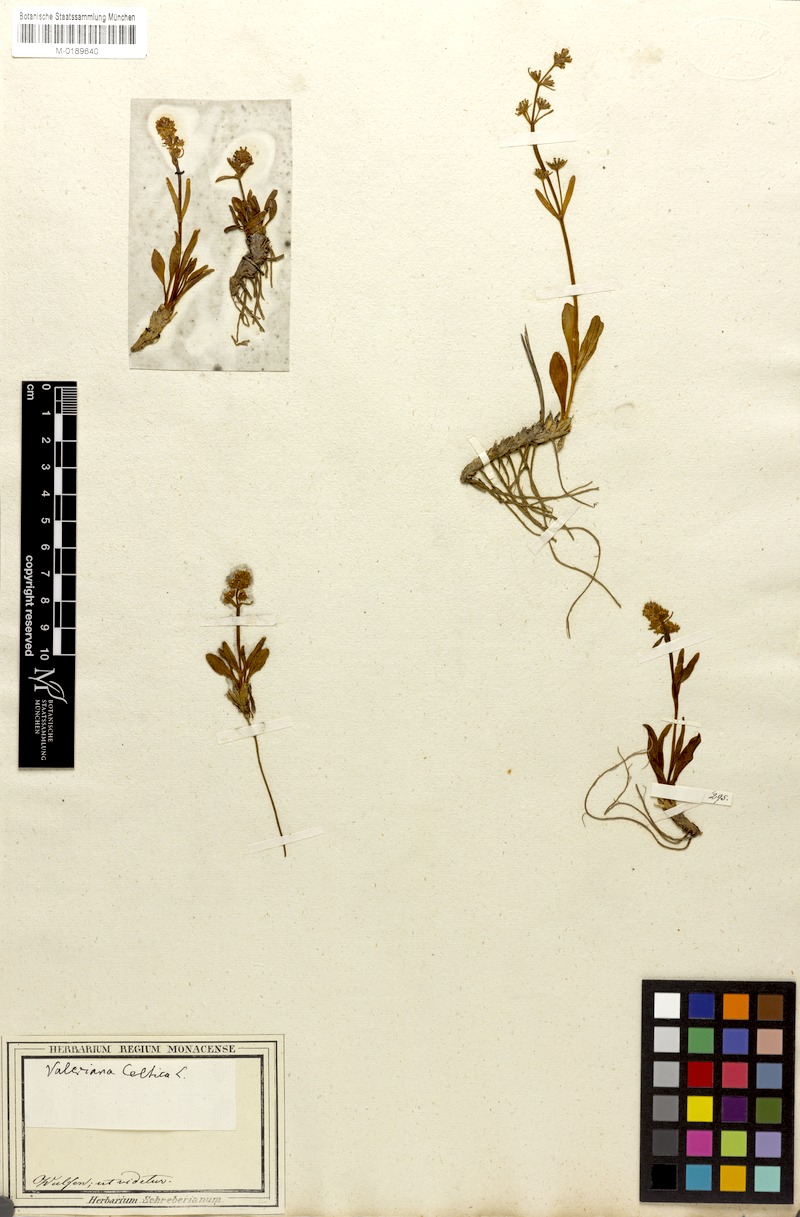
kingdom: Plantae
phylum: Tracheophyta
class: Magnoliopsida
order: Dipsacales
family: Caprifoliaceae
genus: Valeriana
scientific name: Valeriana celtica
